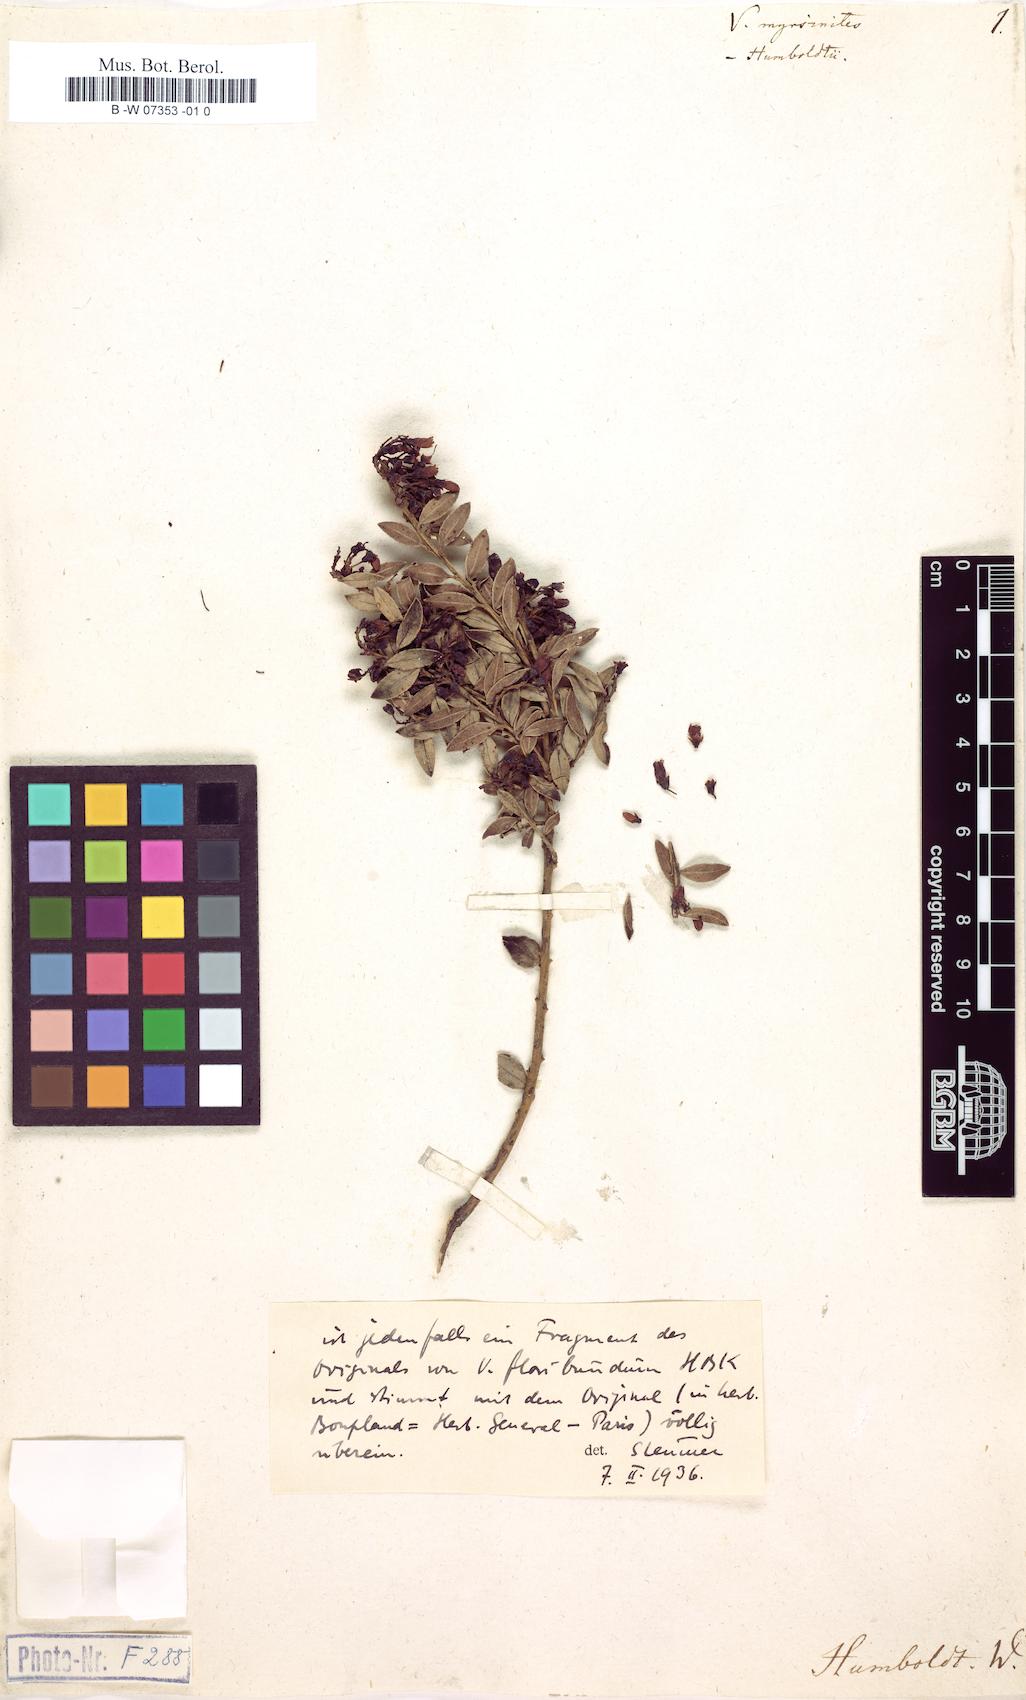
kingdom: Plantae
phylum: Tracheophyta
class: Magnoliopsida
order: Ericales
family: Ericaceae
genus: Vaccinium
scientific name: Vaccinium myrsinites
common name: Evergreen blueberry
